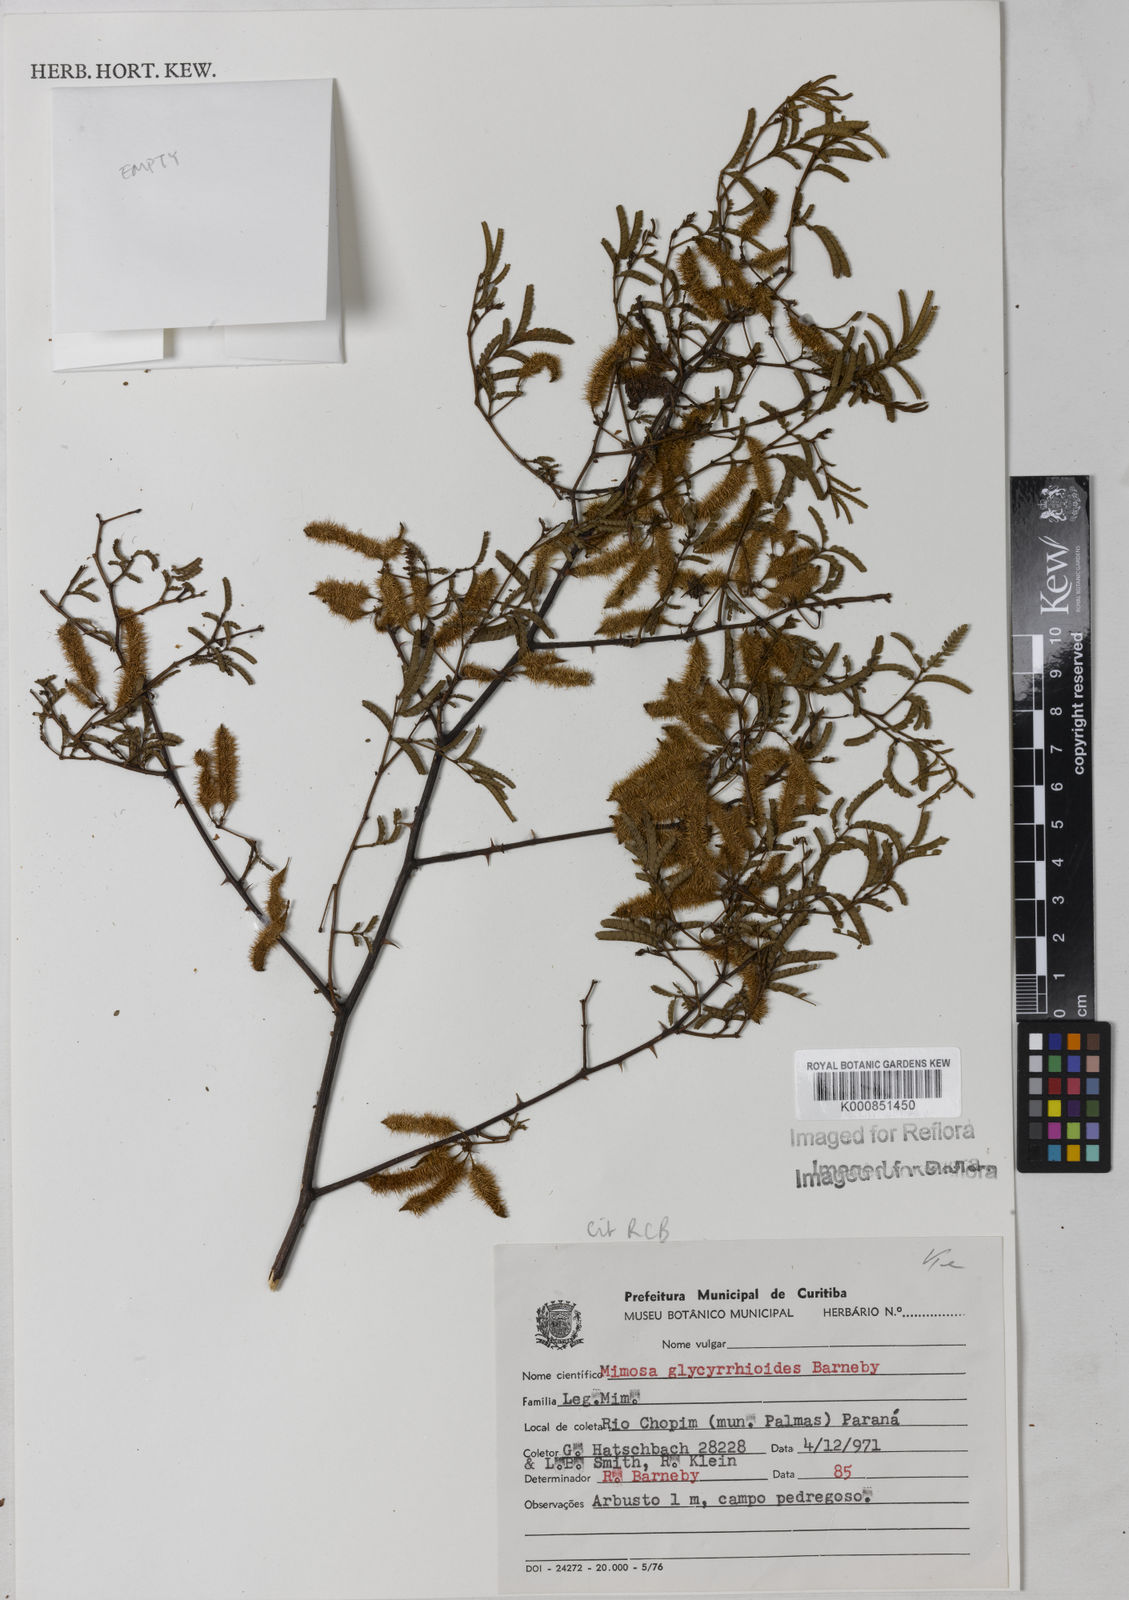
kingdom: Plantae
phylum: Tracheophyta
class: Magnoliopsida
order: Fabales
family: Fabaceae
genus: Mimosa
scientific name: Mimosa glycyrrhizoides
